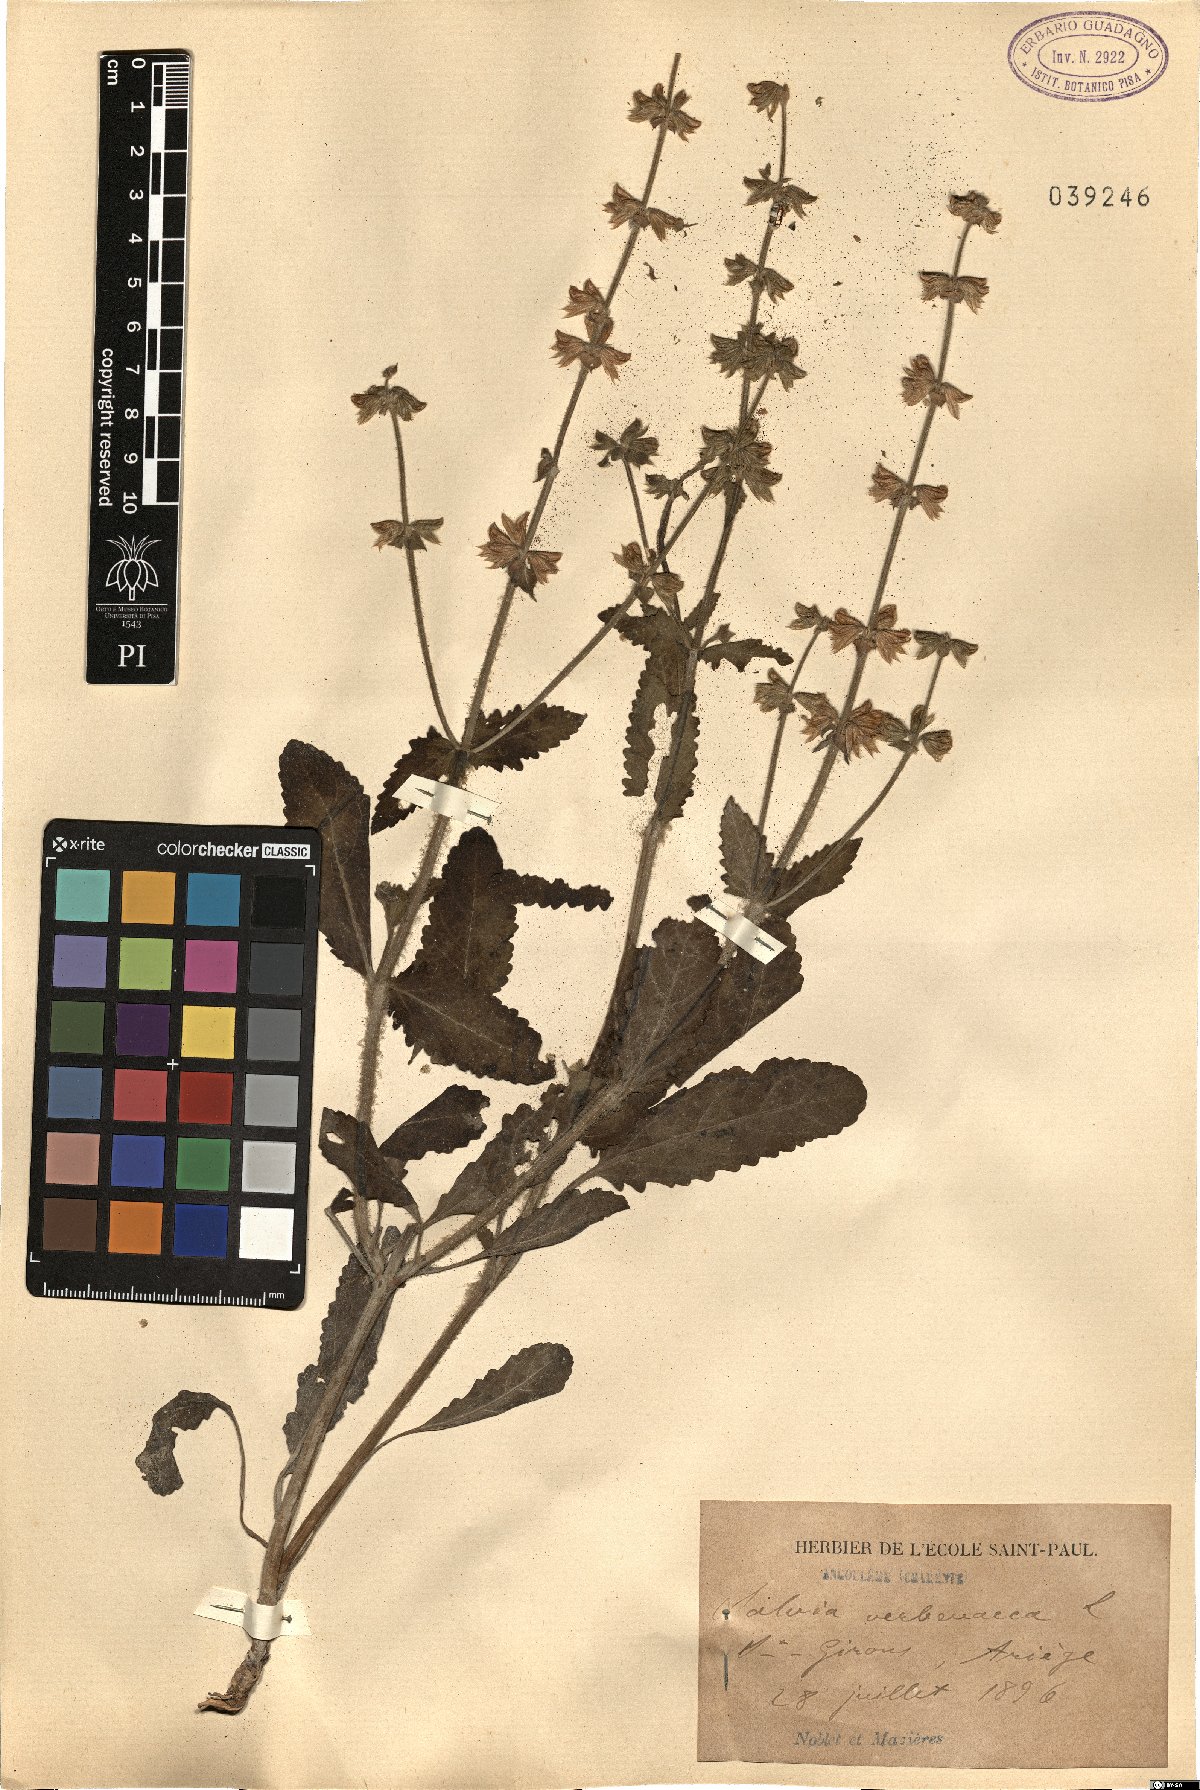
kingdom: Plantae
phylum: Tracheophyta
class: Magnoliopsida
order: Lamiales
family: Lamiaceae
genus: Salvia
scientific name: Salvia verbenaca
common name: Wild clary
